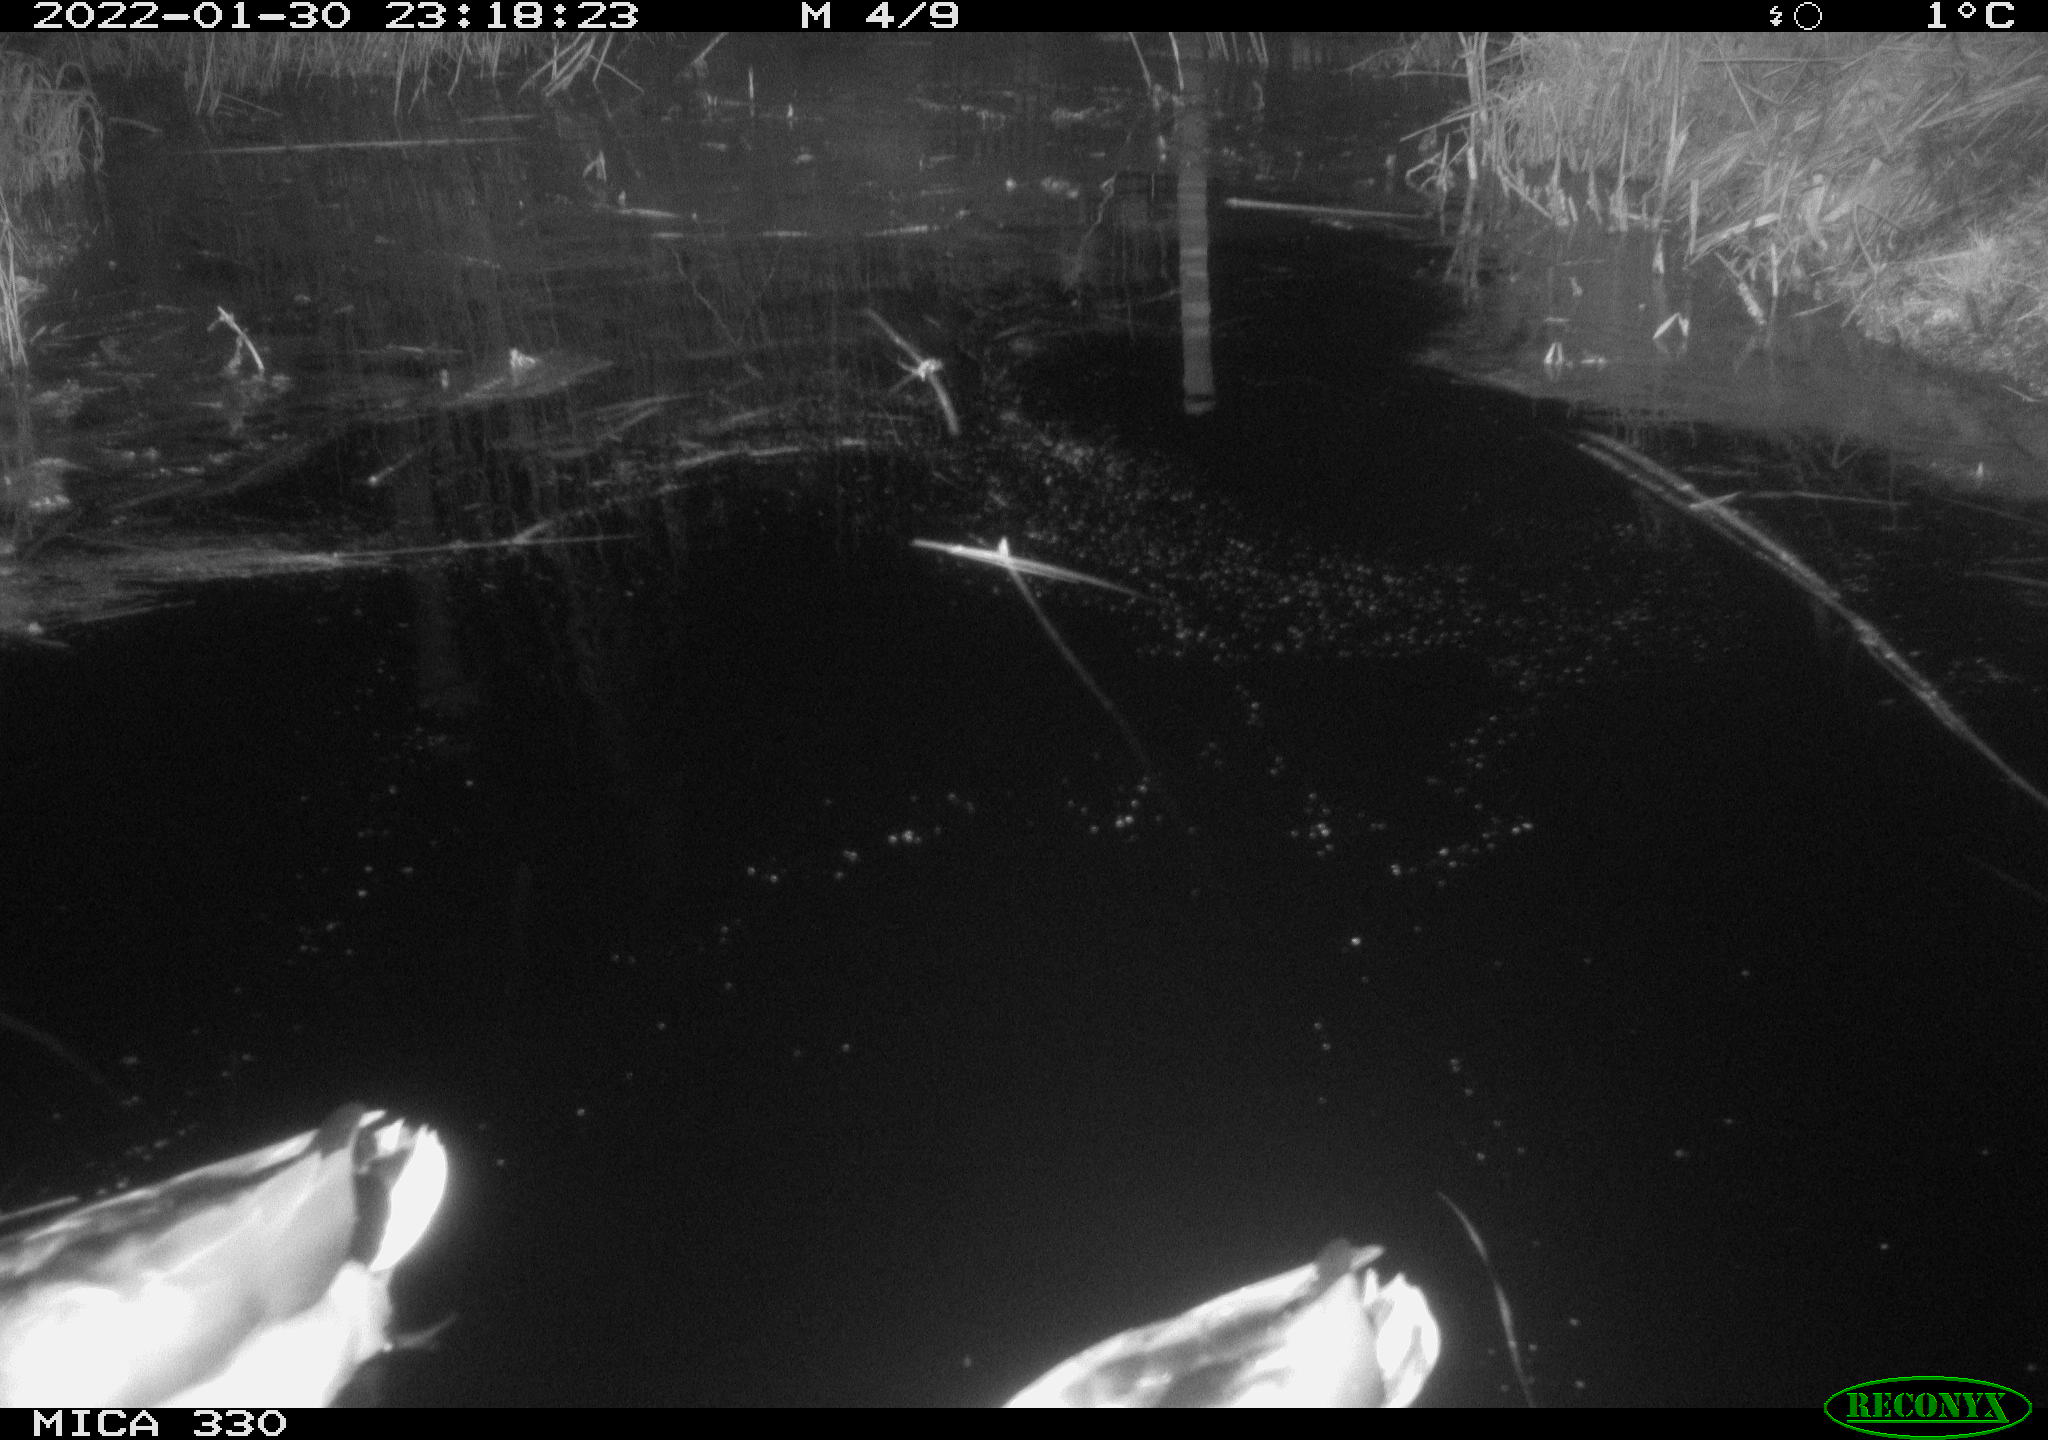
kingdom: Animalia
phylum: Chordata
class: Aves
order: Anseriformes
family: Anatidae
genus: Anas
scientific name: Anas platyrhynchos
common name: Mallard
